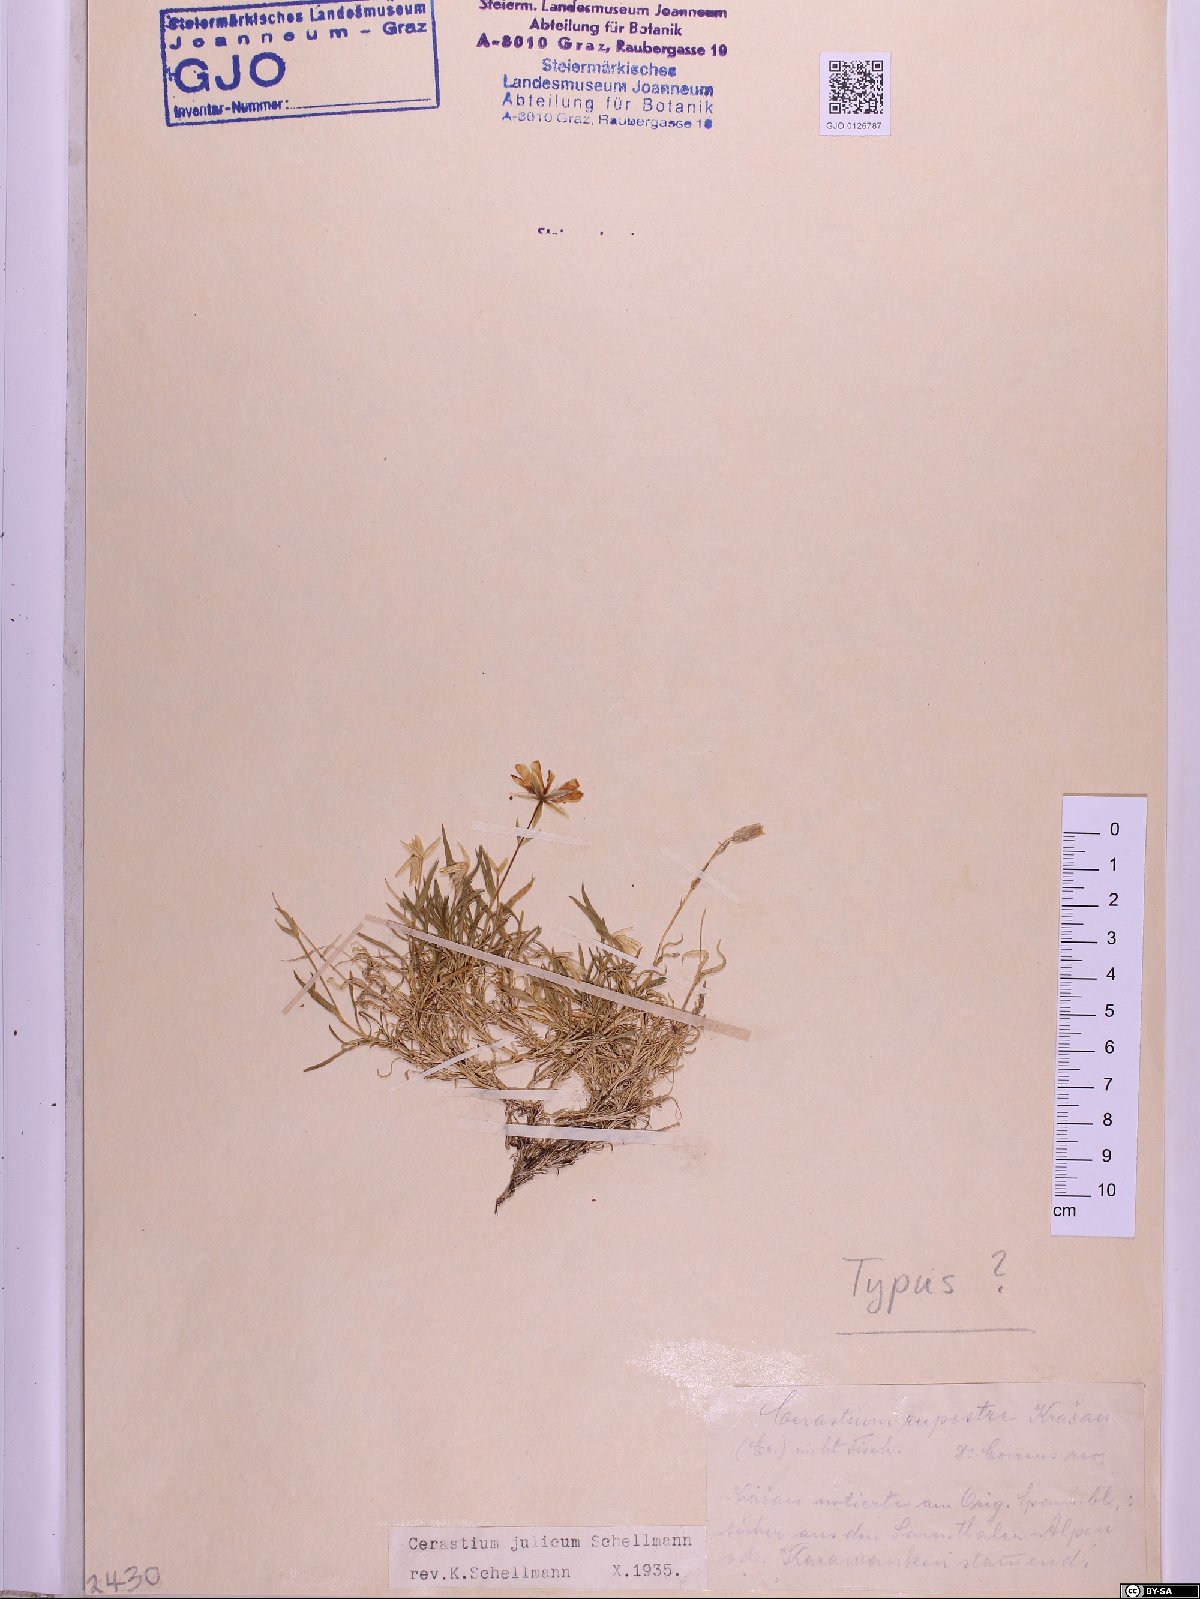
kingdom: Plantae
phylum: Tracheophyta
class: Magnoliopsida
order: Caryophyllales
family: Caryophyllaceae
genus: Cerastium
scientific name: Cerastium julicum
